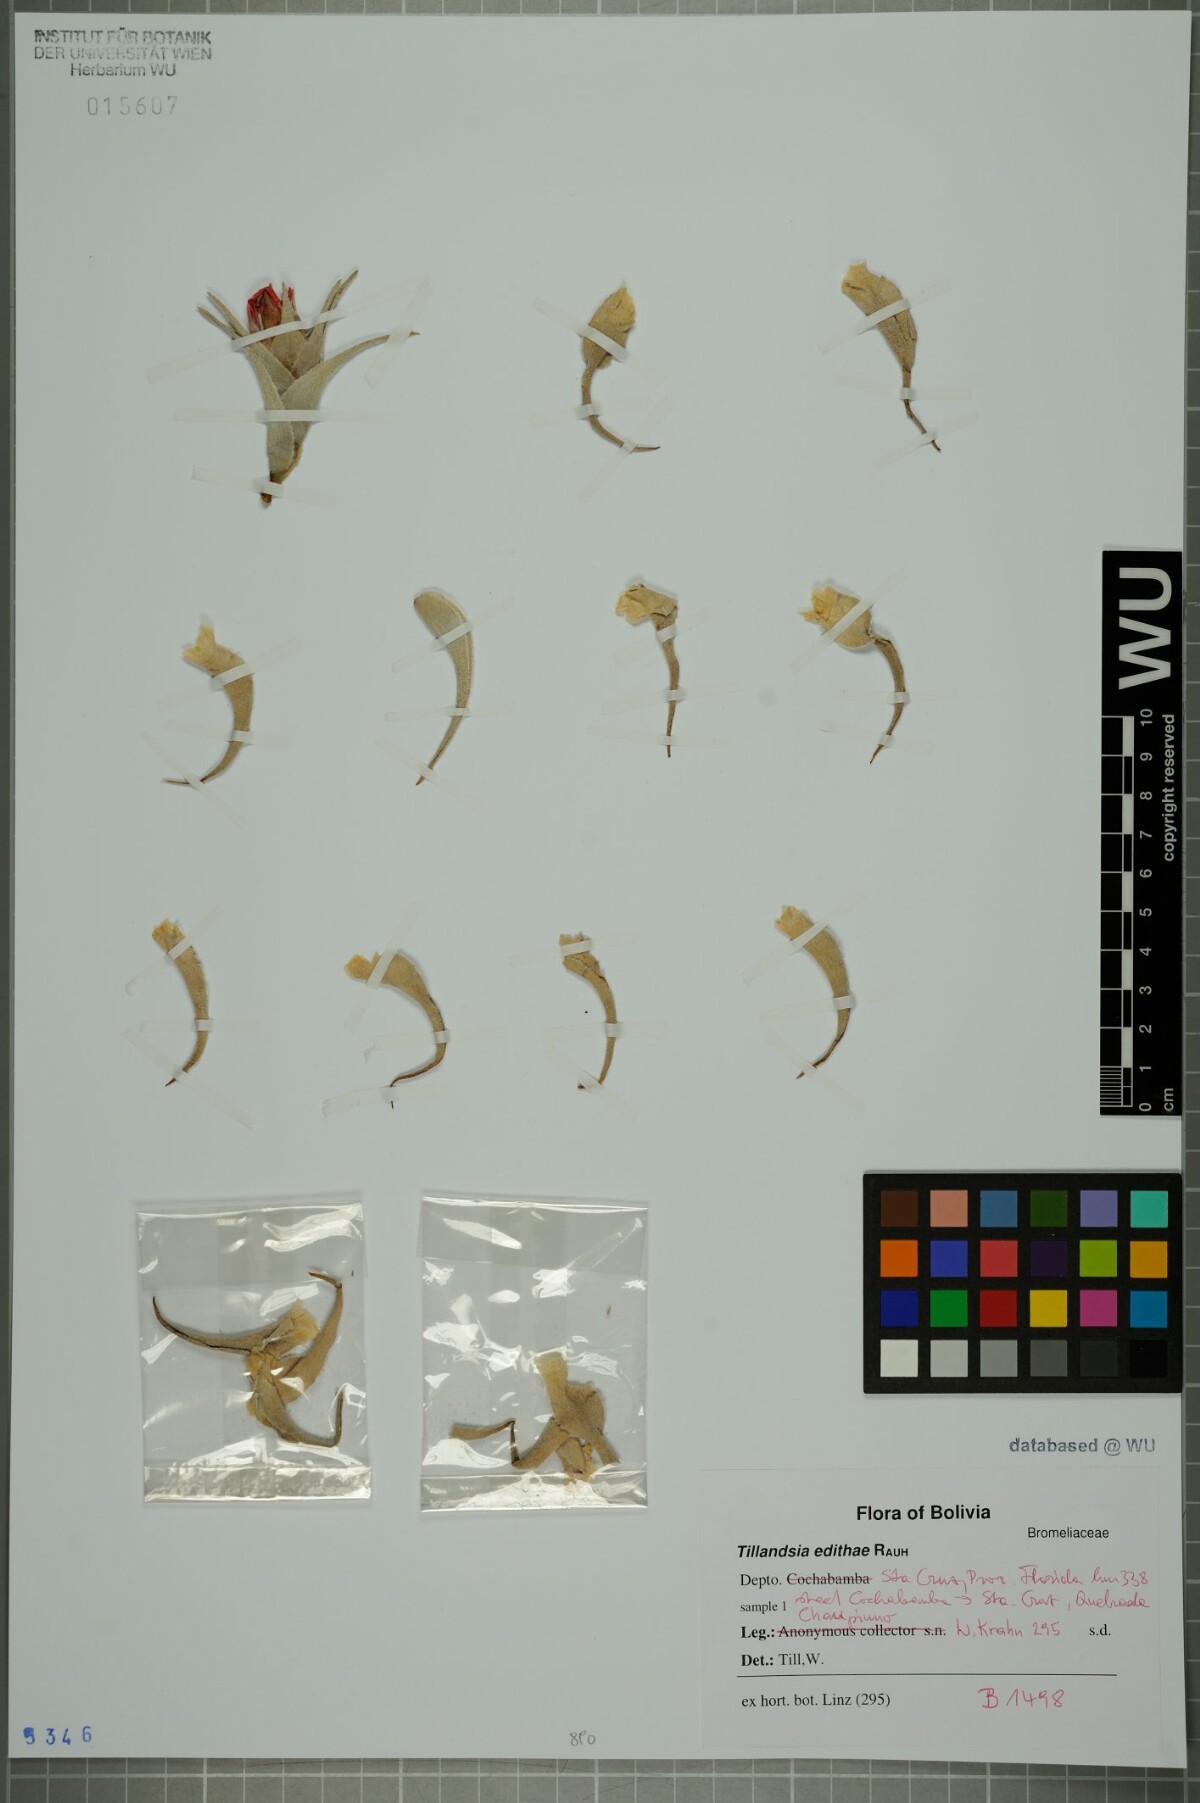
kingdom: Plantae
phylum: Tracheophyta
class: Liliopsida
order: Poales
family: Bromeliaceae
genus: Tillandsia
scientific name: Tillandsia edithae
